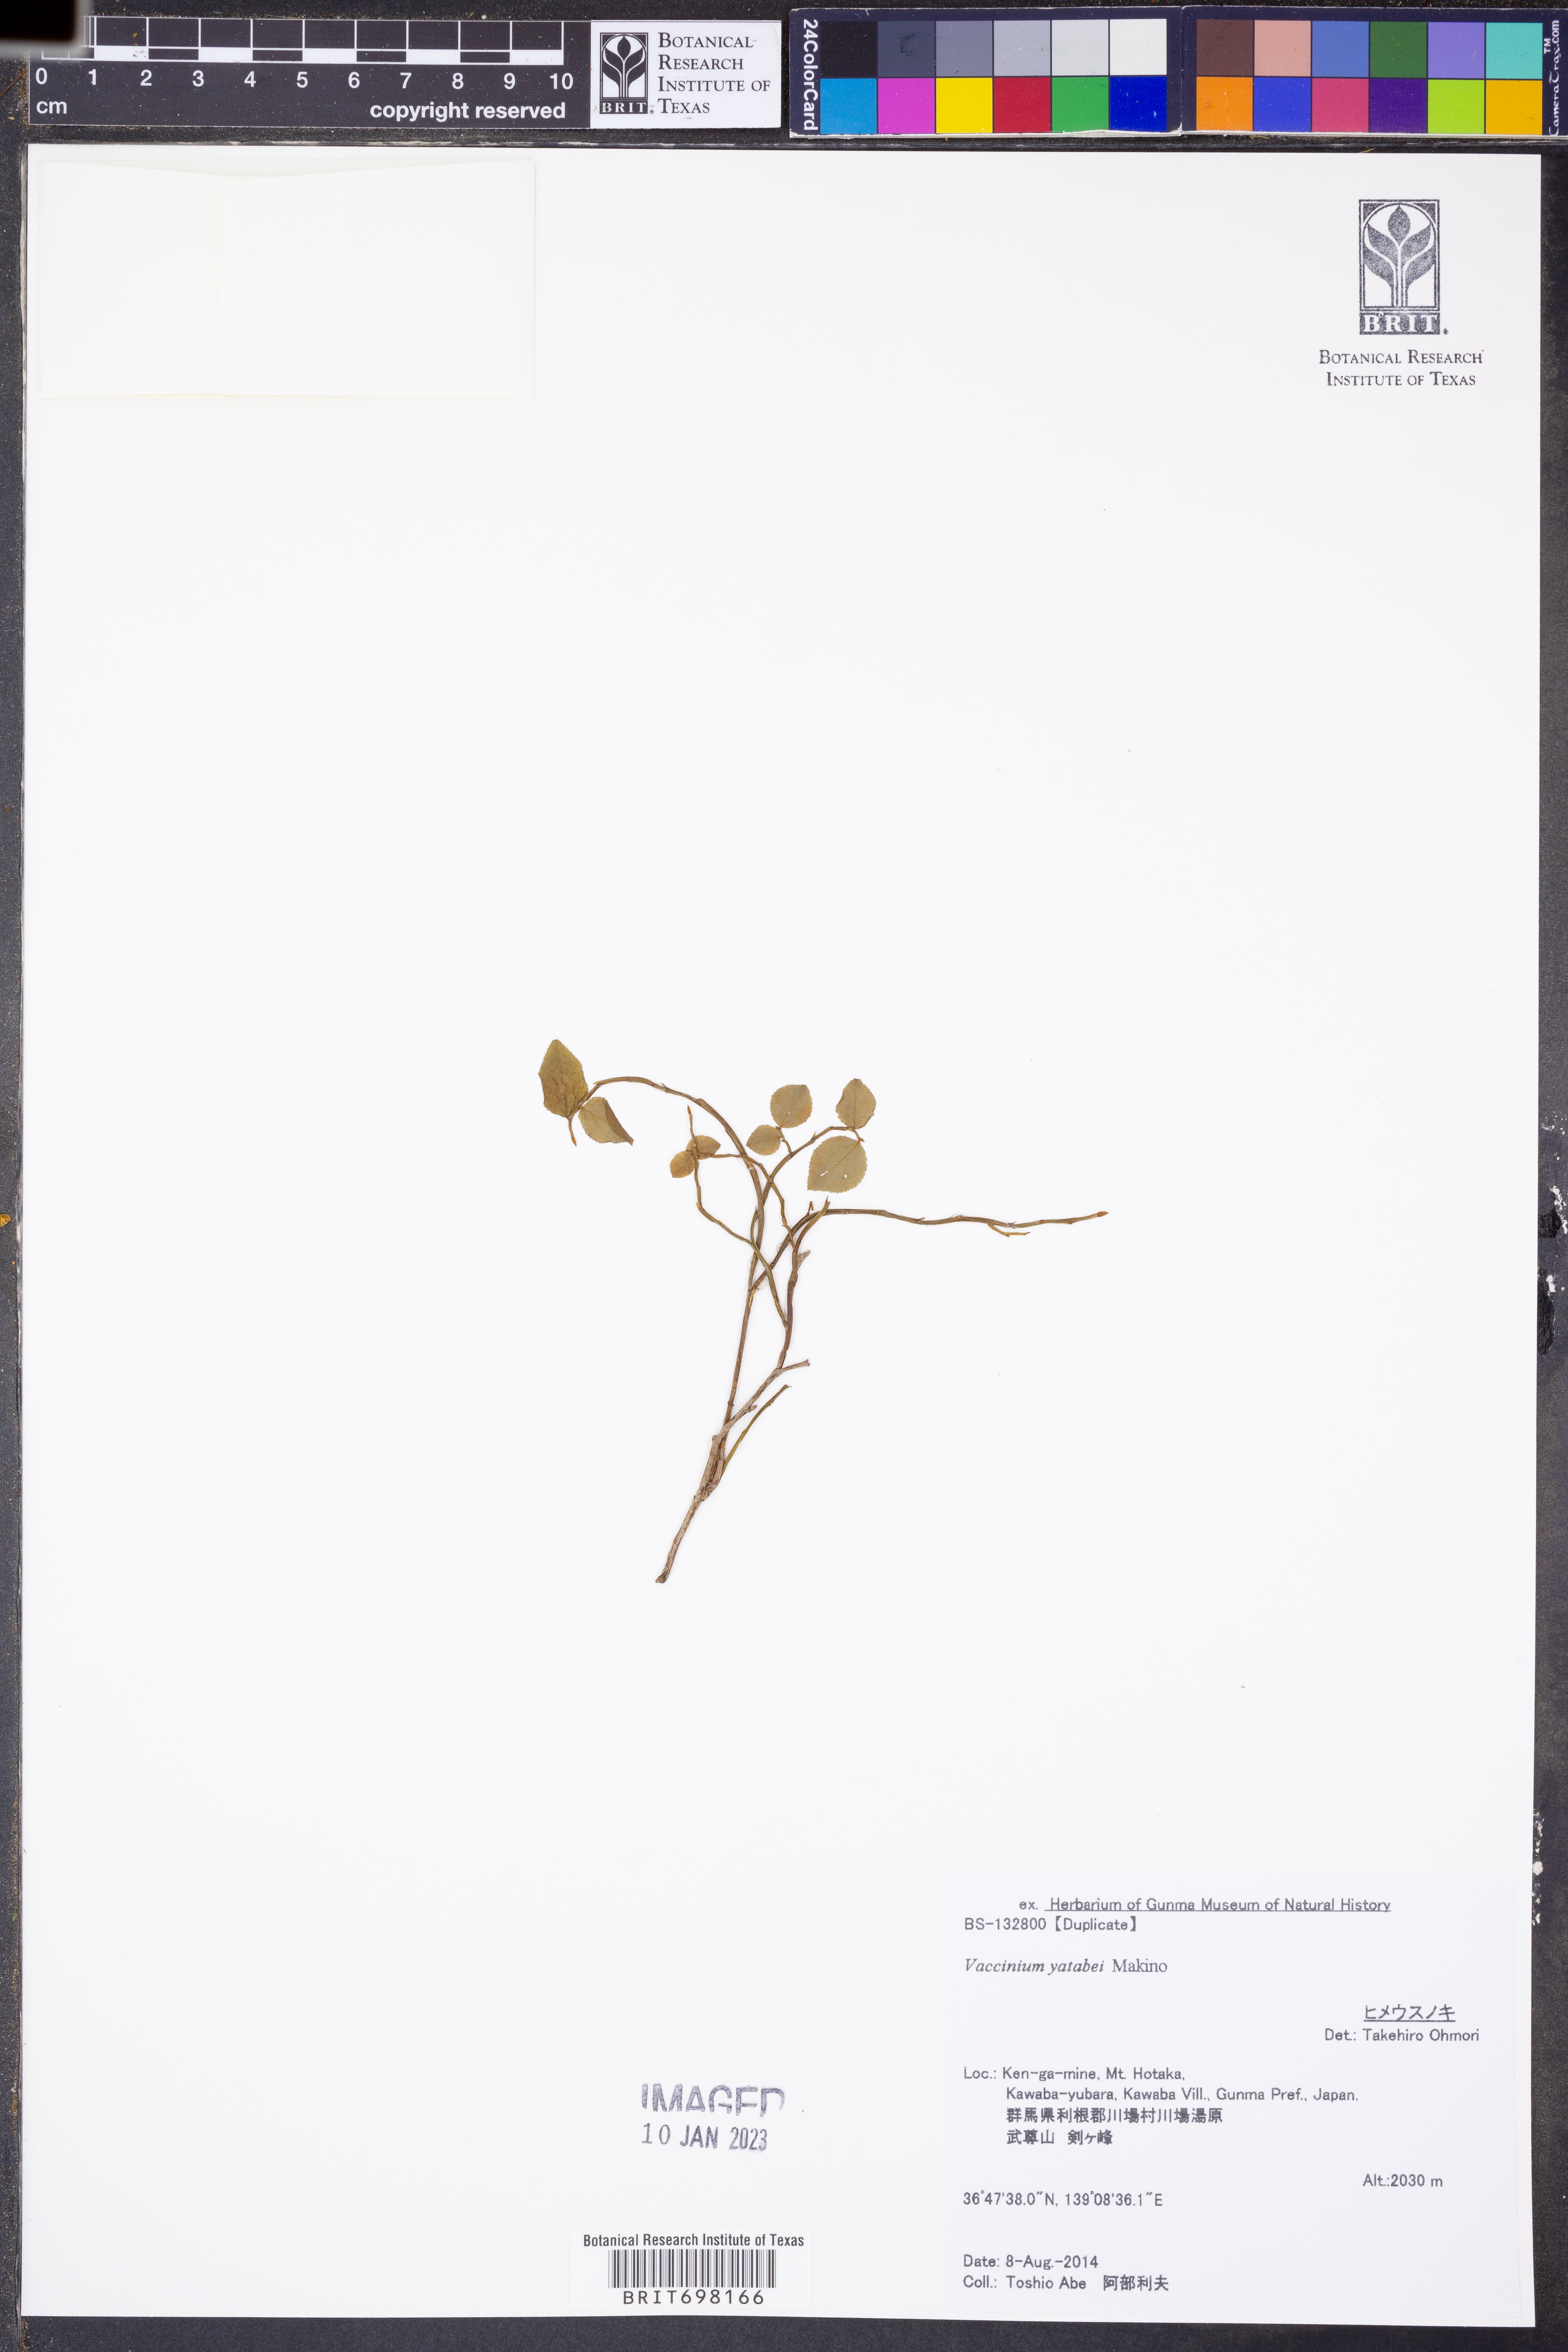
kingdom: Plantae
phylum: Tracheophyta
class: Magnoliopsida
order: Ericales
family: Ericaceae
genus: Vaccinium
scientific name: Vaccinium yatabei
